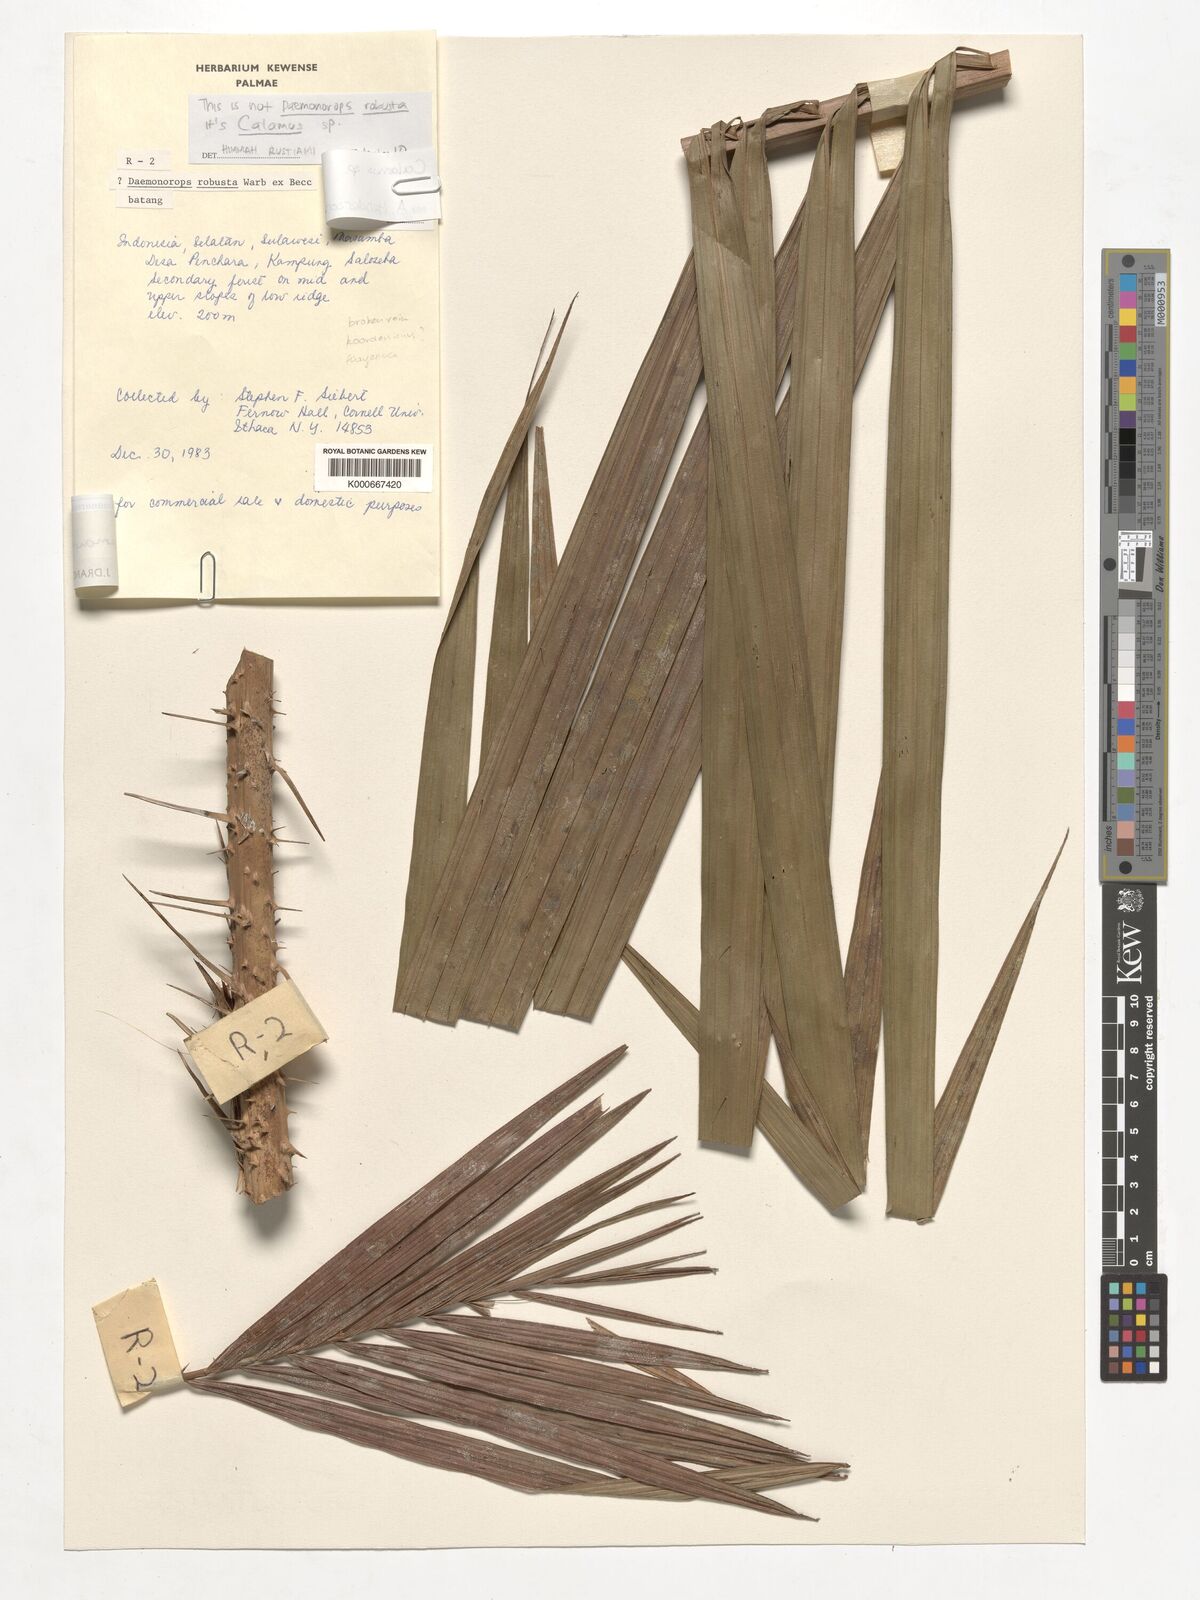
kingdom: Plantae
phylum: Tracheophyta
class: Liliopsida
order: Arecales
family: Arecaceae
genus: Calamus
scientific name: Calamus
